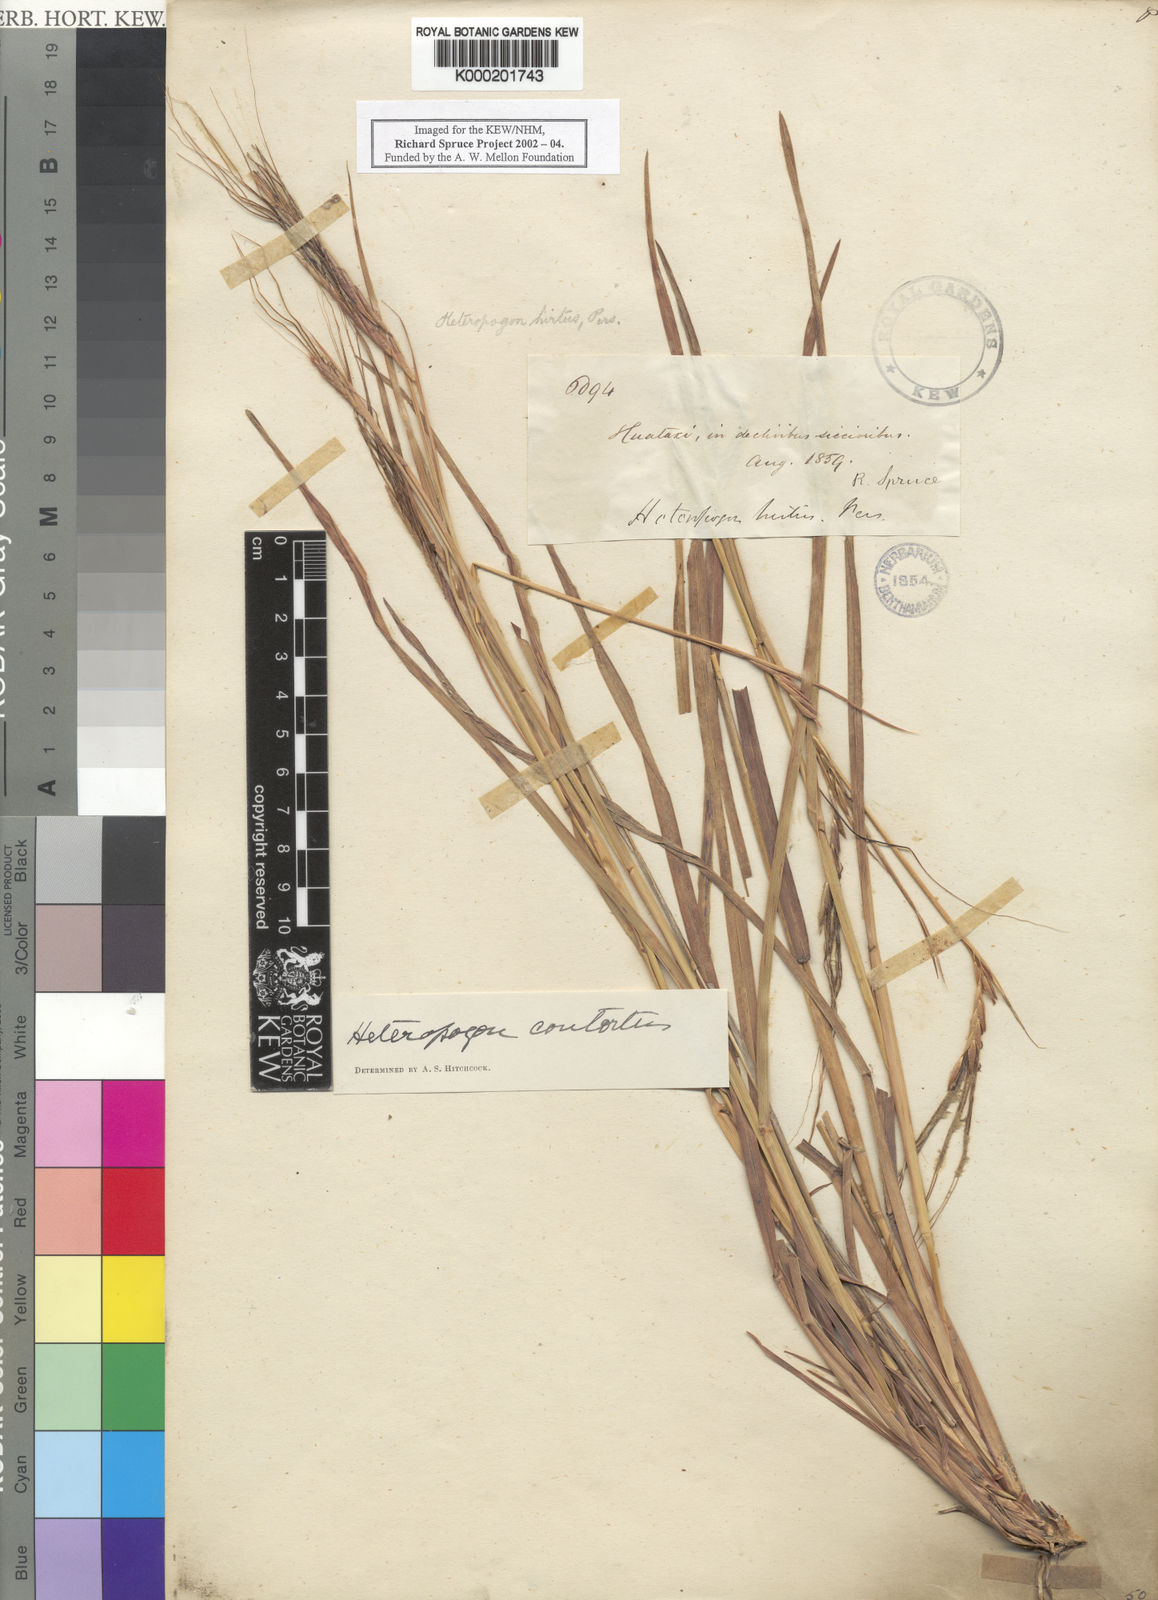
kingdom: Plantae
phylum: Tracheophyta
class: Liliopsida
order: Poales
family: Poaceae
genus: Heteropogon
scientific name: Heteropogon contortus
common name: Tanglehead
